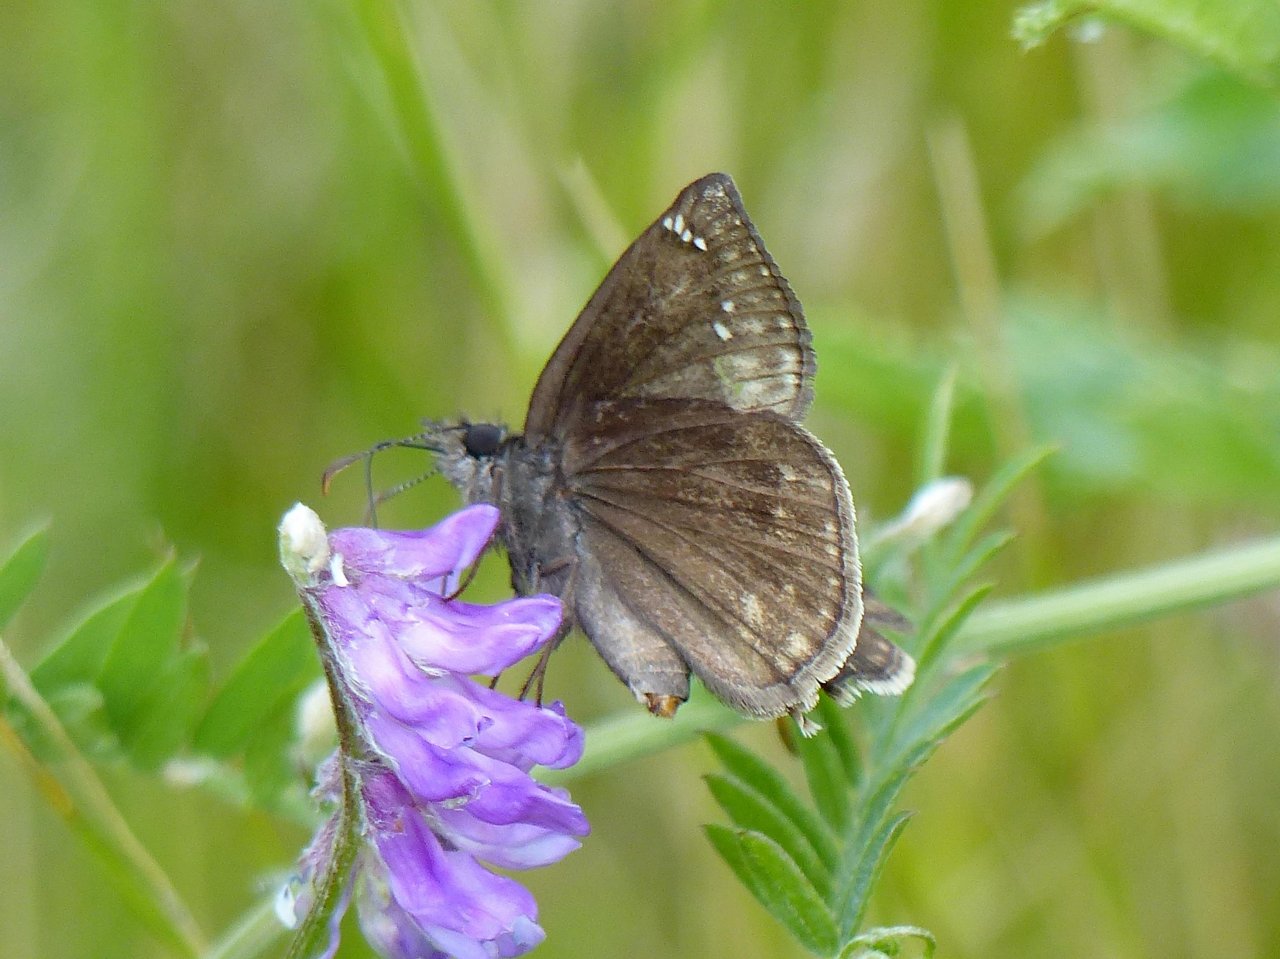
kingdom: Animalia
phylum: Arthropoda
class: Insecta
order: Lepidoptera
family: Hesperiidae
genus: Gesta
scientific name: Gesta
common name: Wild Indigo Duskywing
